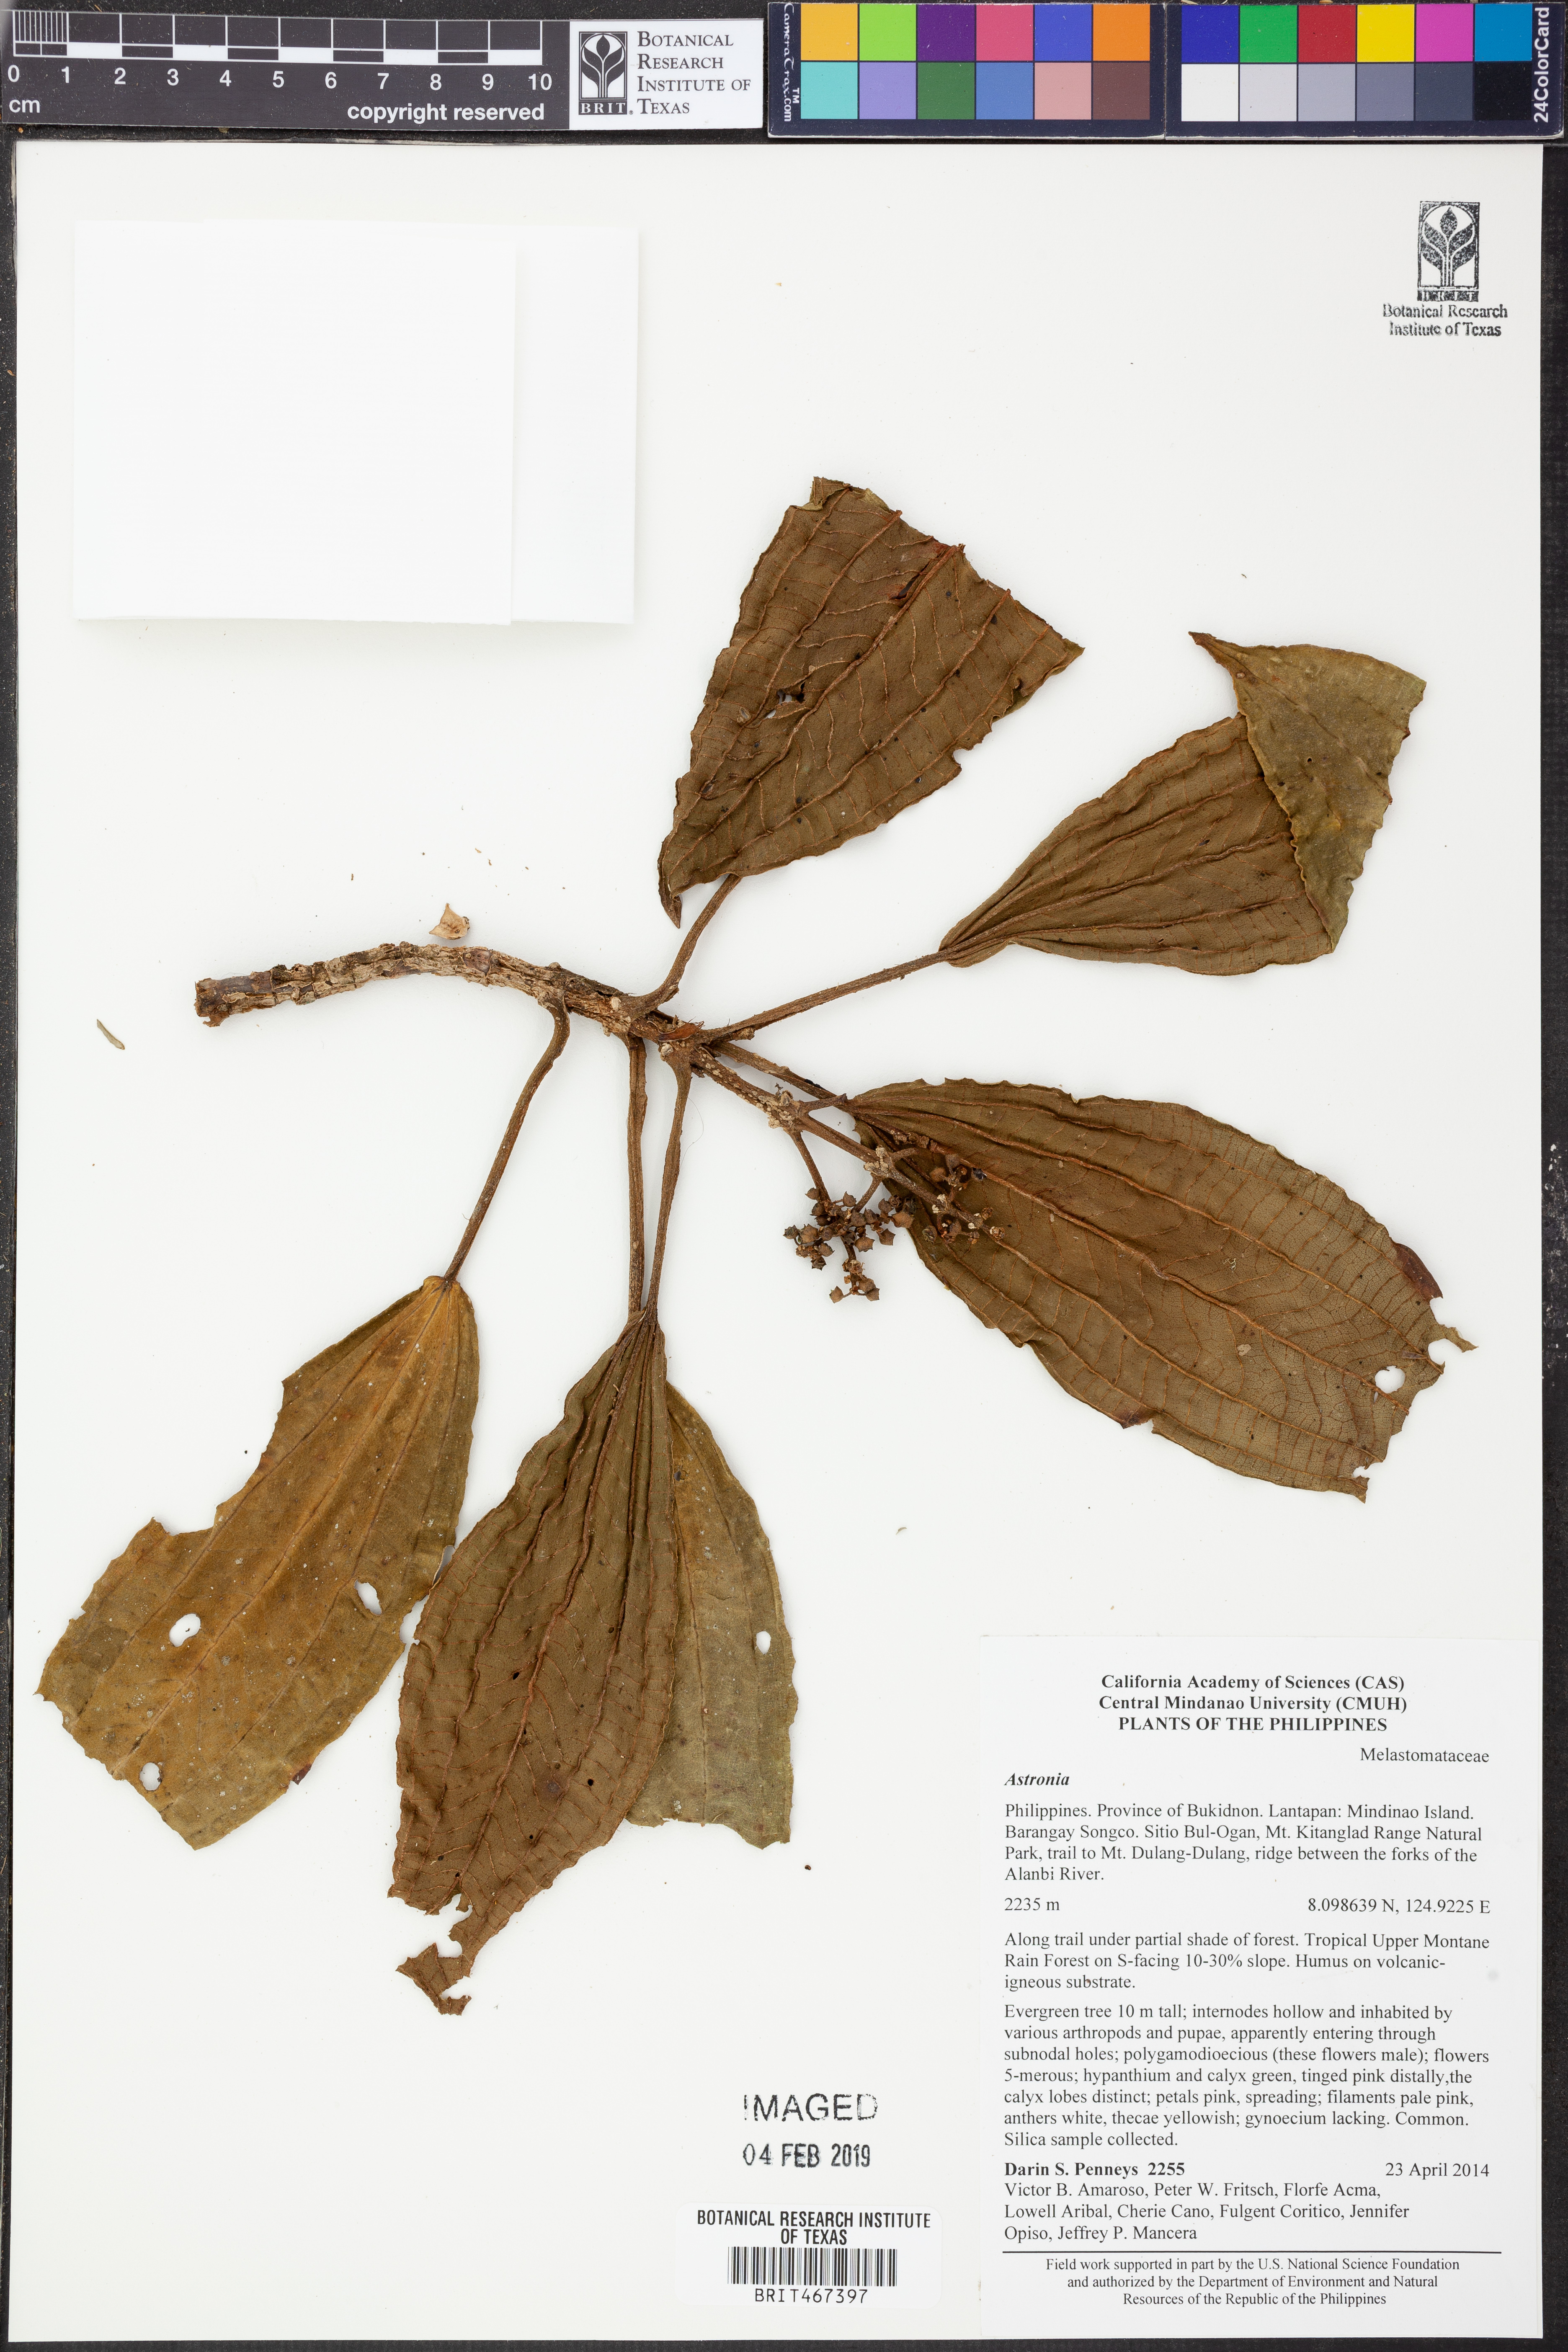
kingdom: Plantae
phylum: Tracheophyta
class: Magnoliopsida
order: Myrtales
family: Melastomataceae
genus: Astronia
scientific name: Astronia
